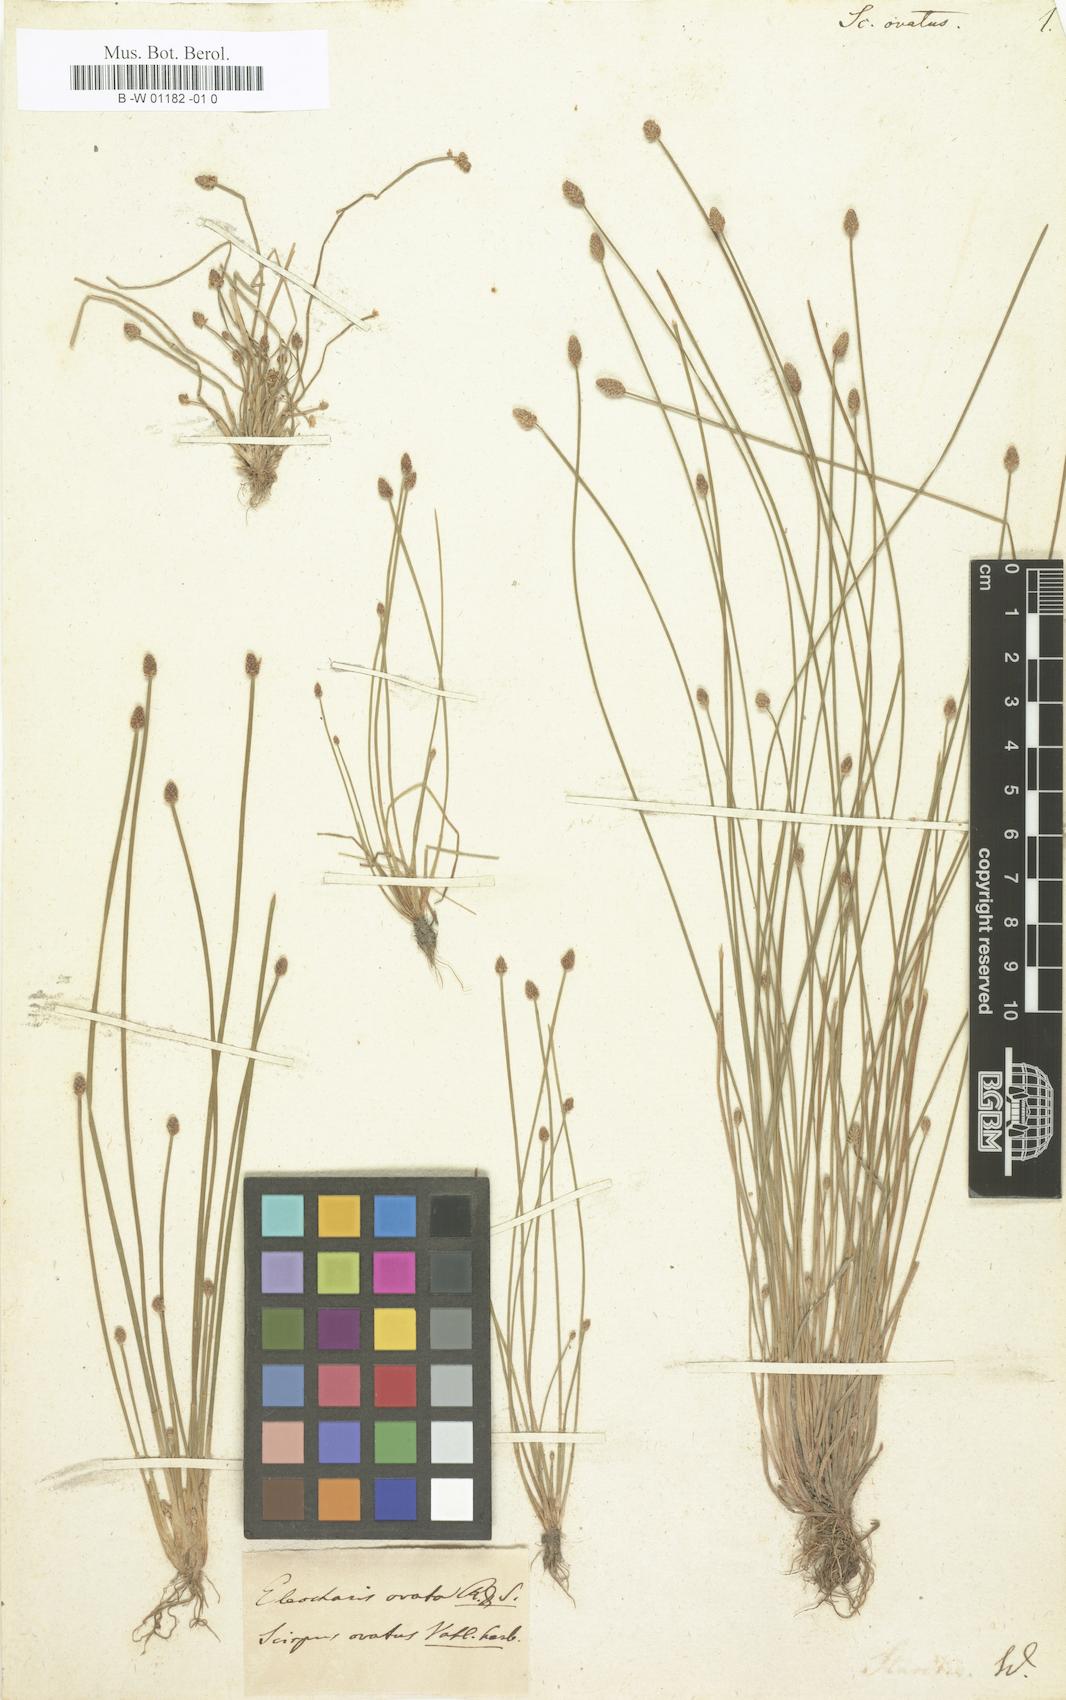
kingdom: Plantae
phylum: Tracheophyta
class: Liliopsida
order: Poales
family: Cyperaceae
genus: Eleocharis
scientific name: Eleocharis
